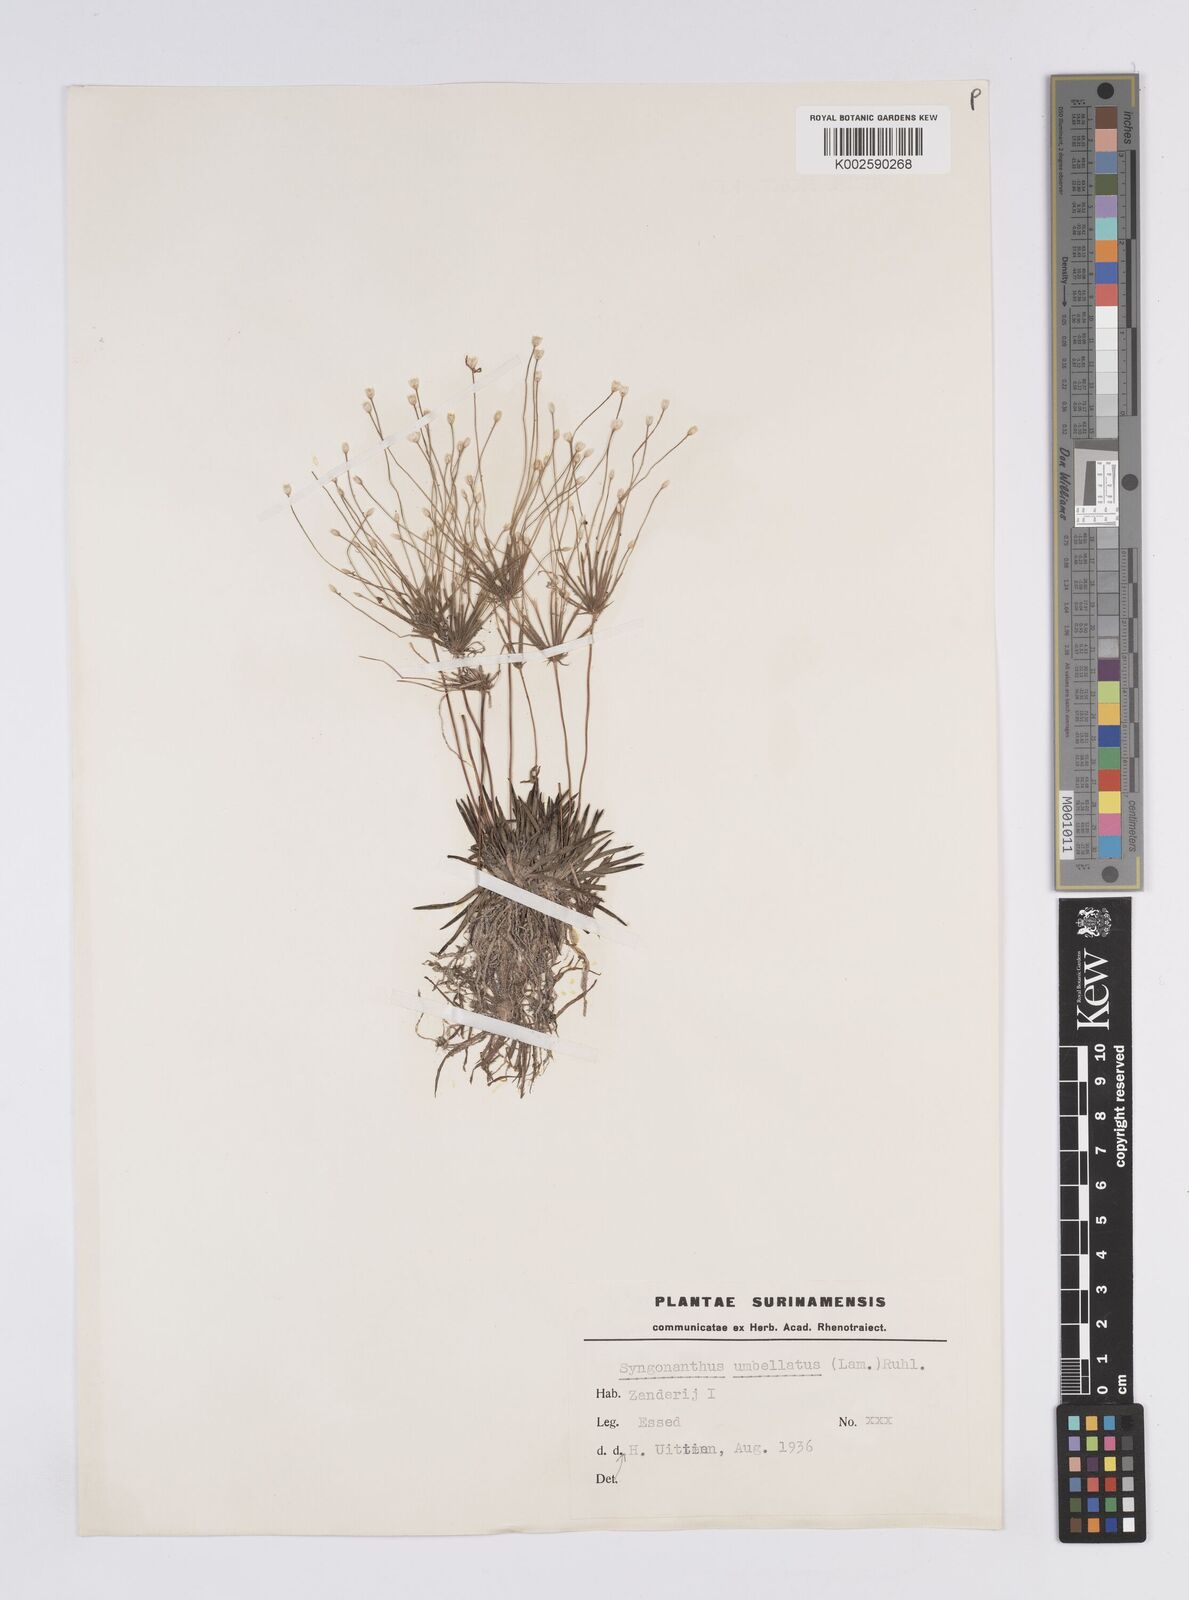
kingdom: Plantae
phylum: Tracheophyta
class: Liliopsida
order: Poales
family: Eriocaulaceae
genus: Syngonanthus
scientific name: Syngonanthus umbellatus
